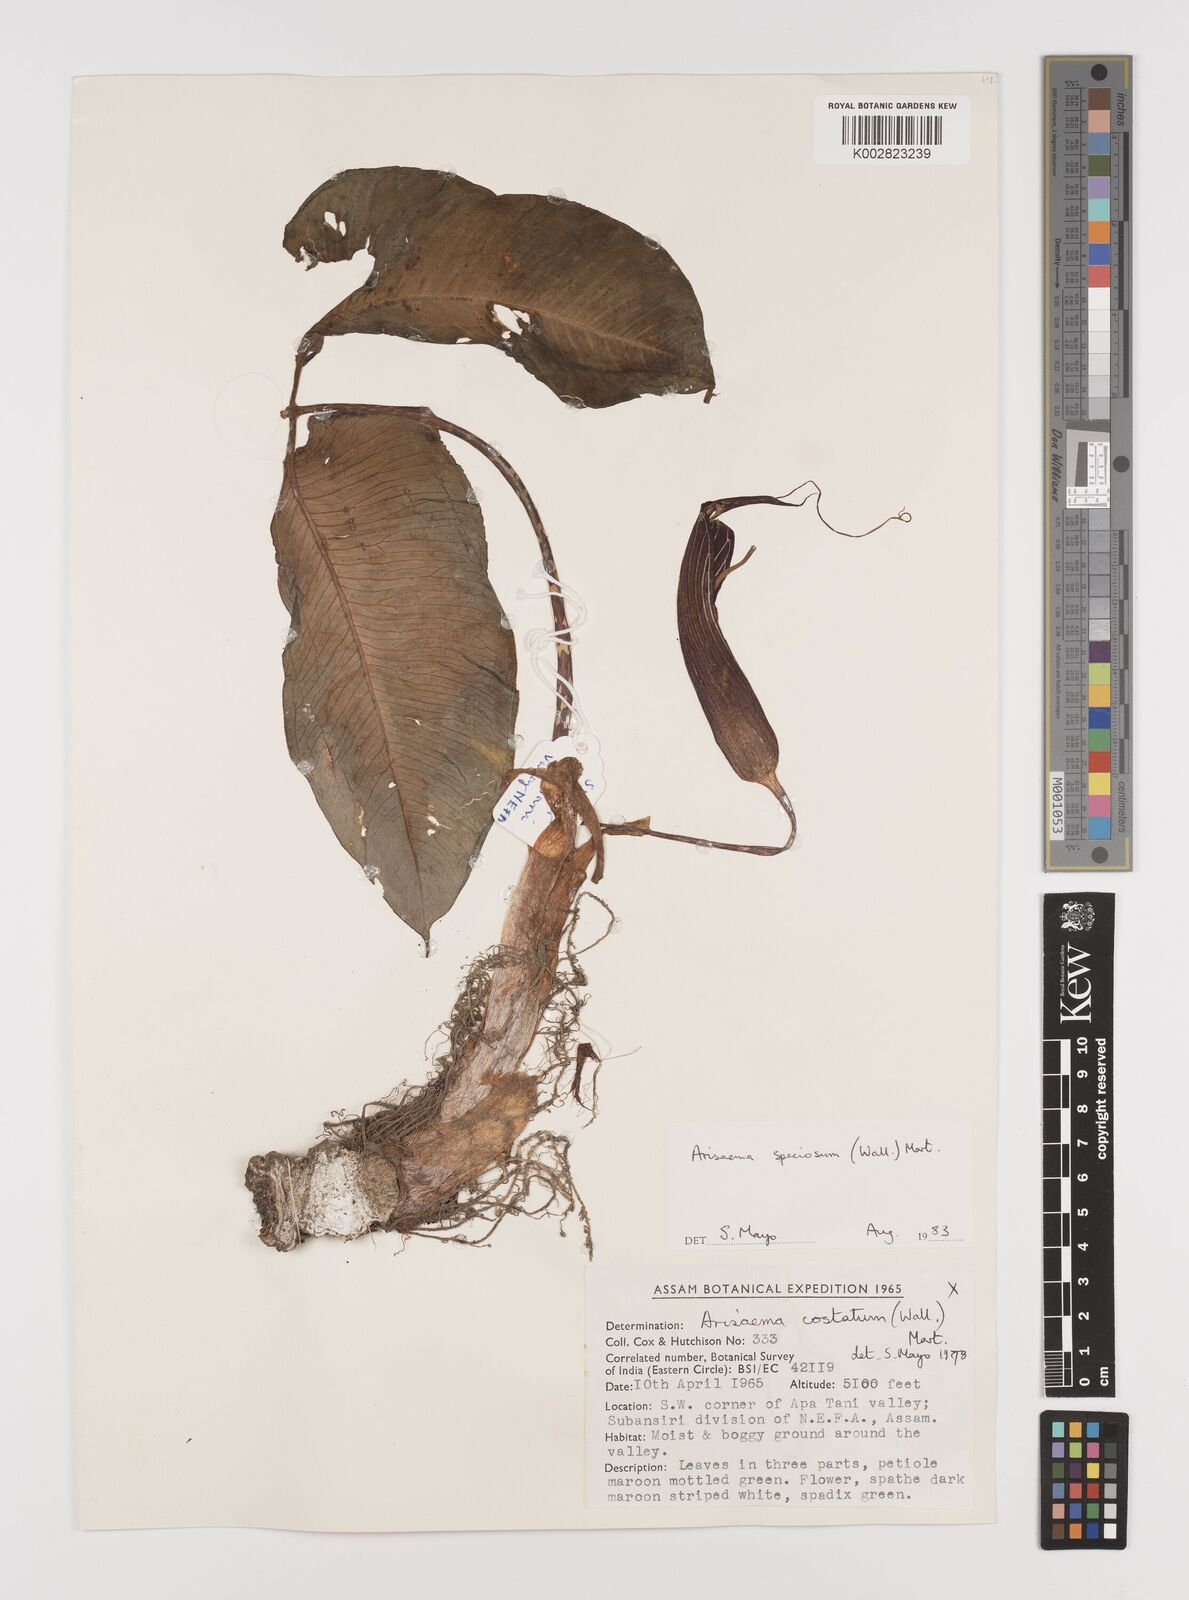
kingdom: Plantae
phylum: Tracheophyta
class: Liliopsida
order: Alismatales
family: Araceae
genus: Arisaema
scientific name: Arisaema speciosum
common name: Showy cobra-lily
